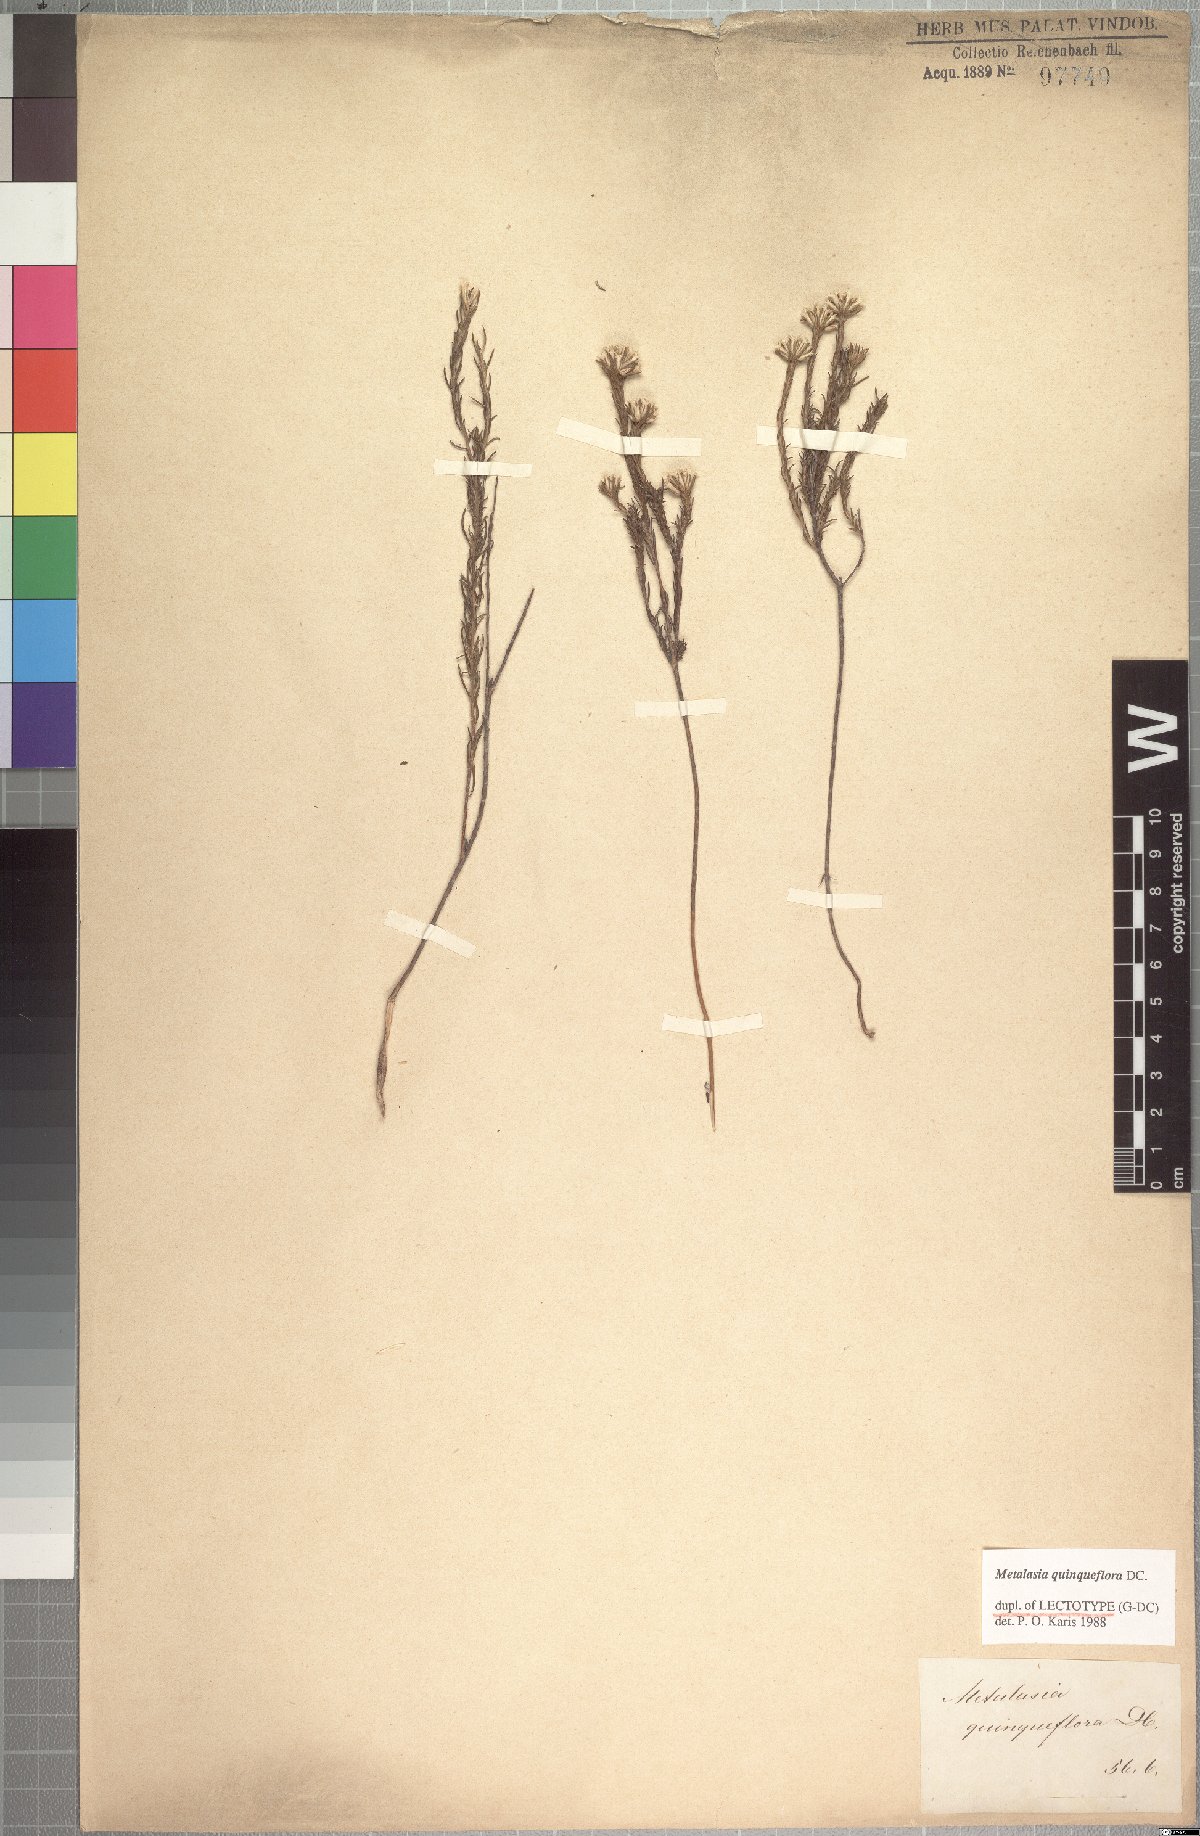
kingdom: Plantae
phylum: Tracheophyta
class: Magnoliopsida
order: Asterales
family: Asteraceae
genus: Metalasia
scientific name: Metalasia quinqueflora
